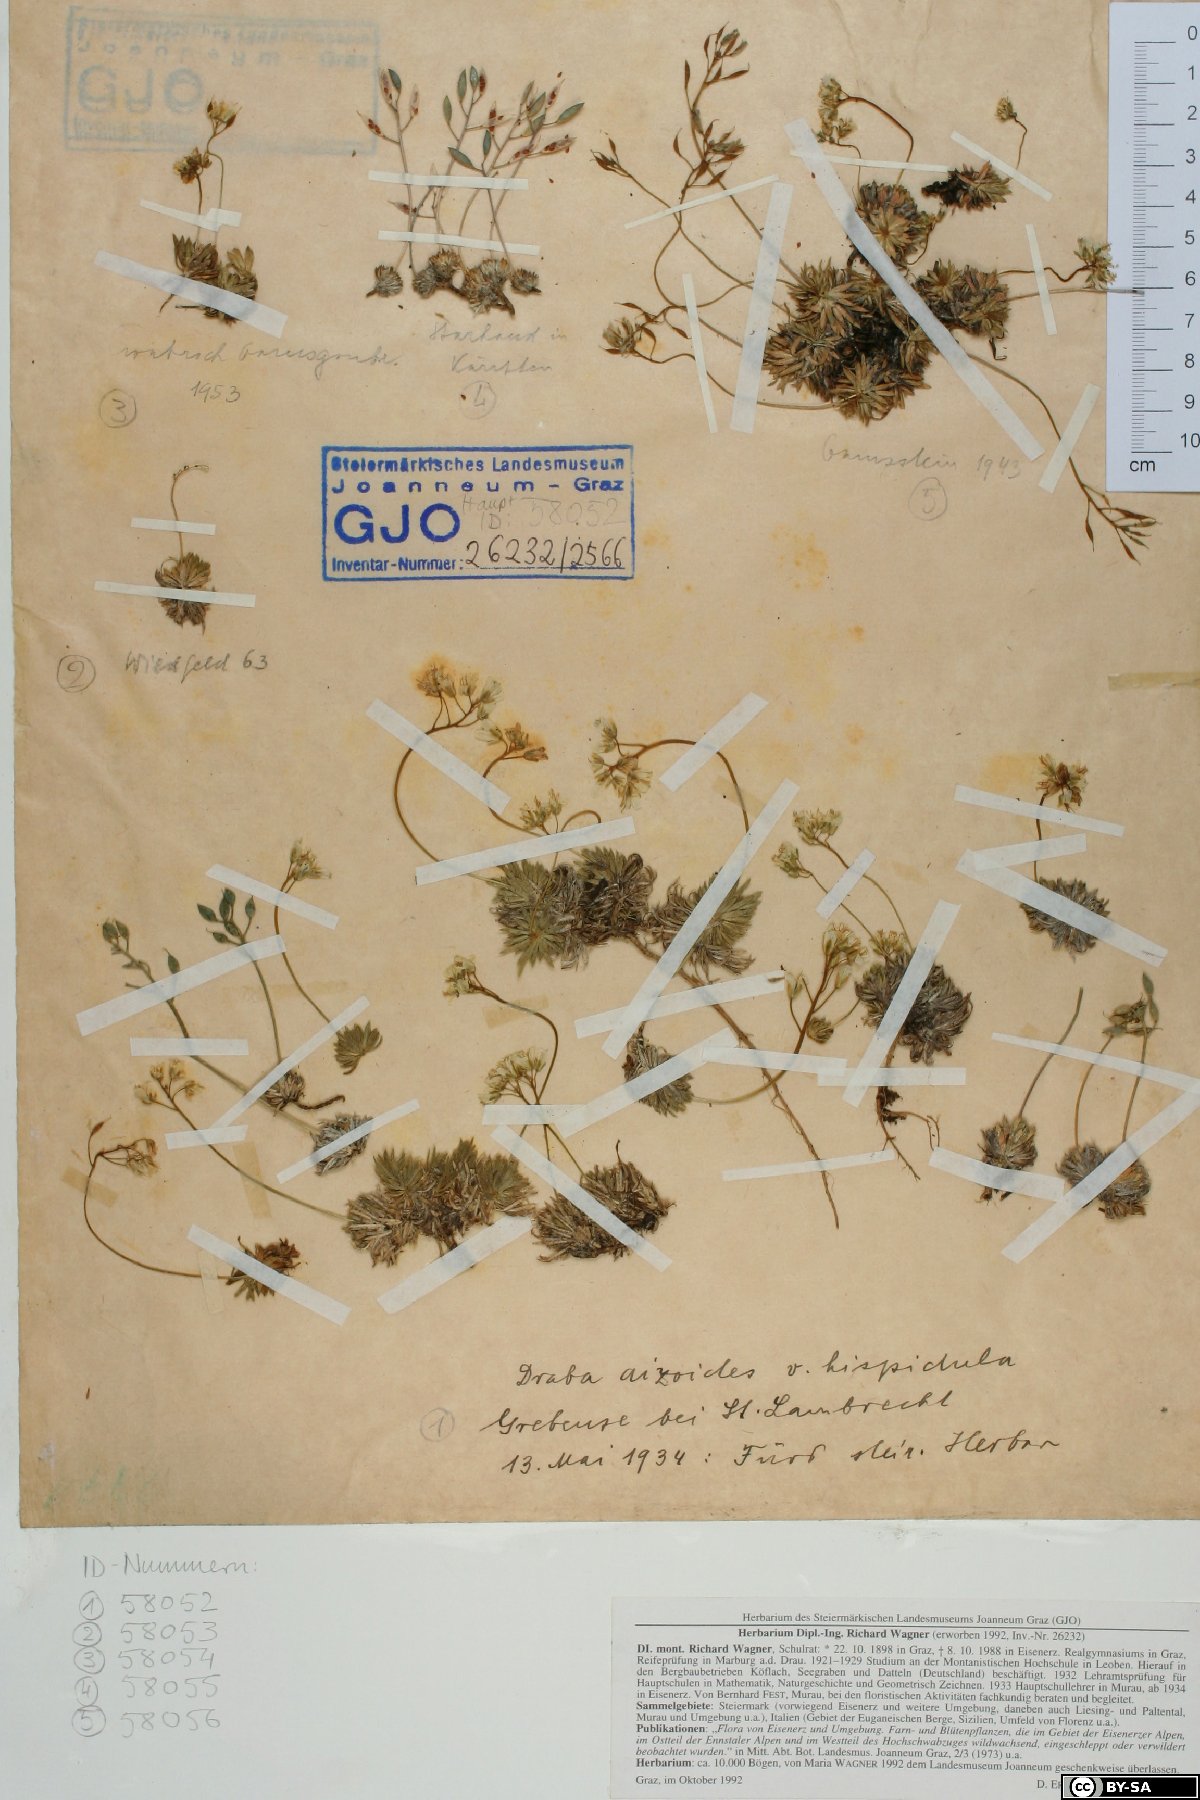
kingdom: Plantae
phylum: Tracheophyta
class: Magnoliopsida
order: Brassicales
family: Brassicaceae
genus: Draba
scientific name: Draba aizoides
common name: Yellow whitlowgrass
